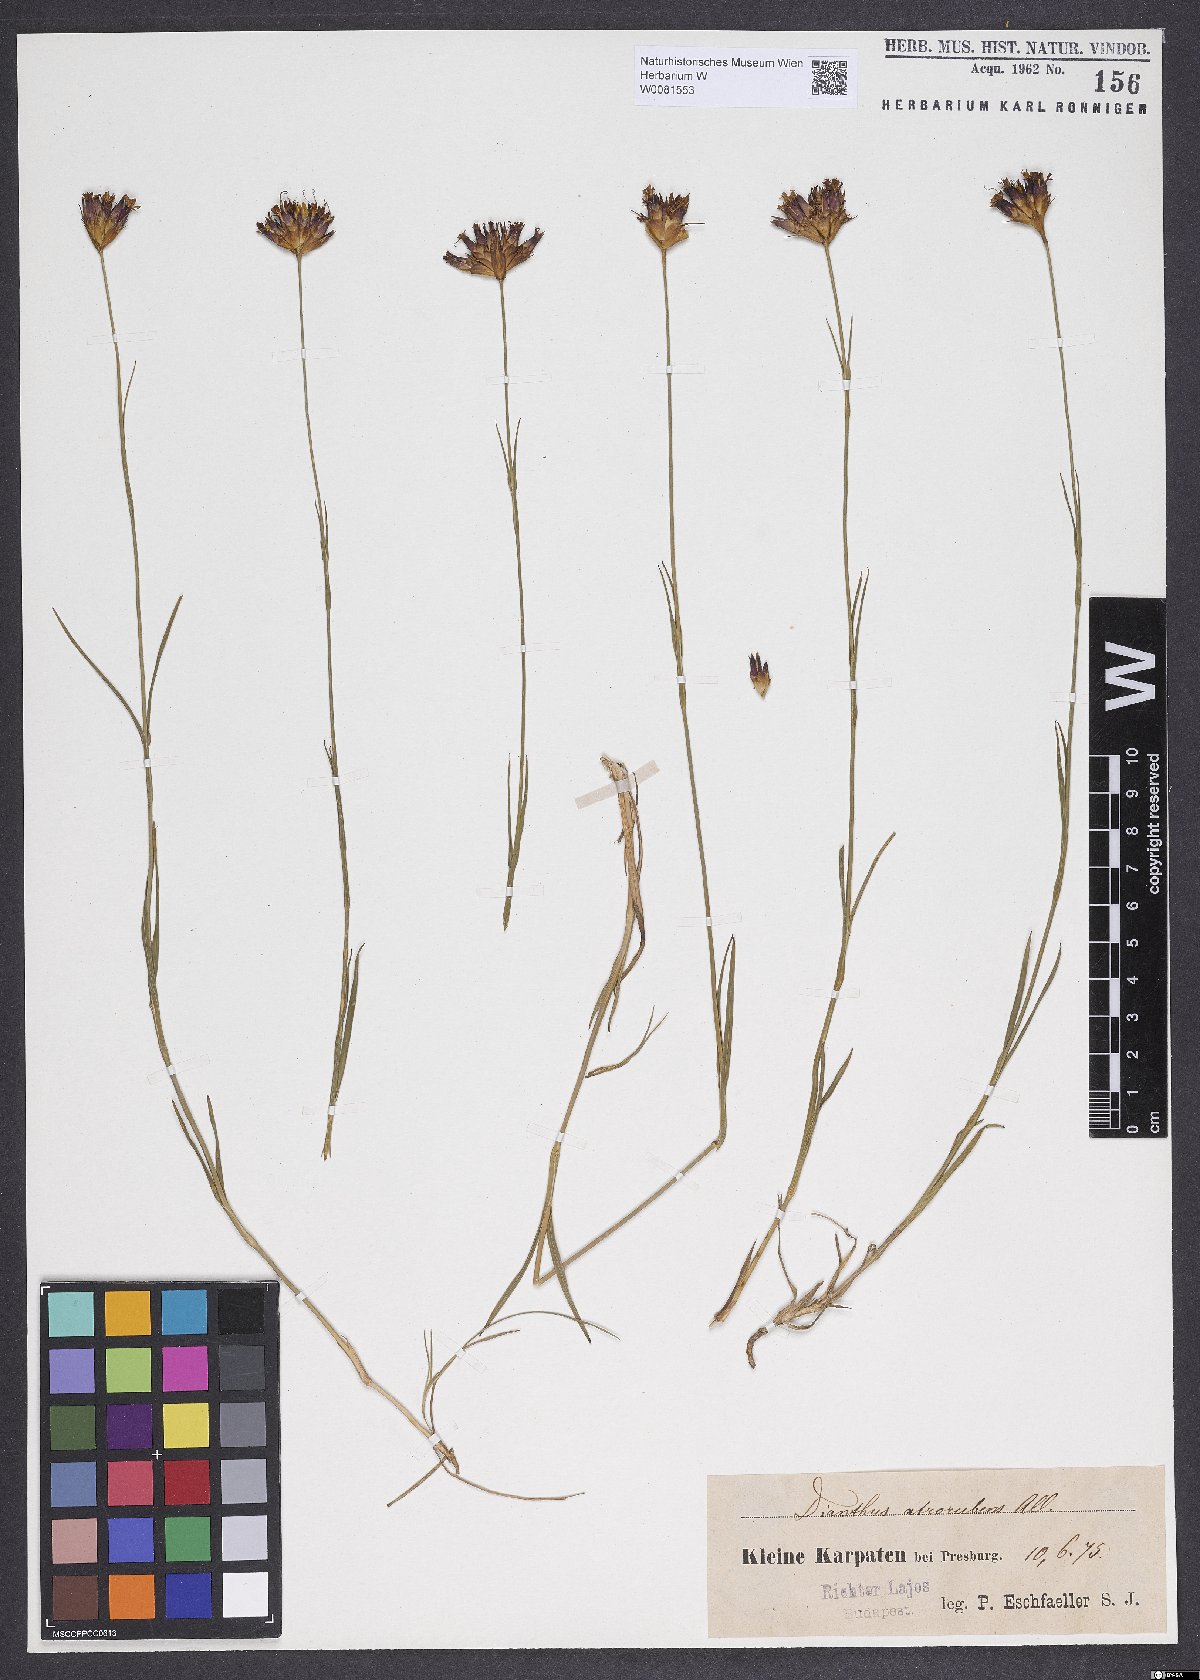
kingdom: Plantae
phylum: Tracheophyta
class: Magnoliopsida
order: Caryophyllales
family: Caryophyllaceae
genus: Dianthus
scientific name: Dianthus carthusianorum
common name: Carthusian pink
